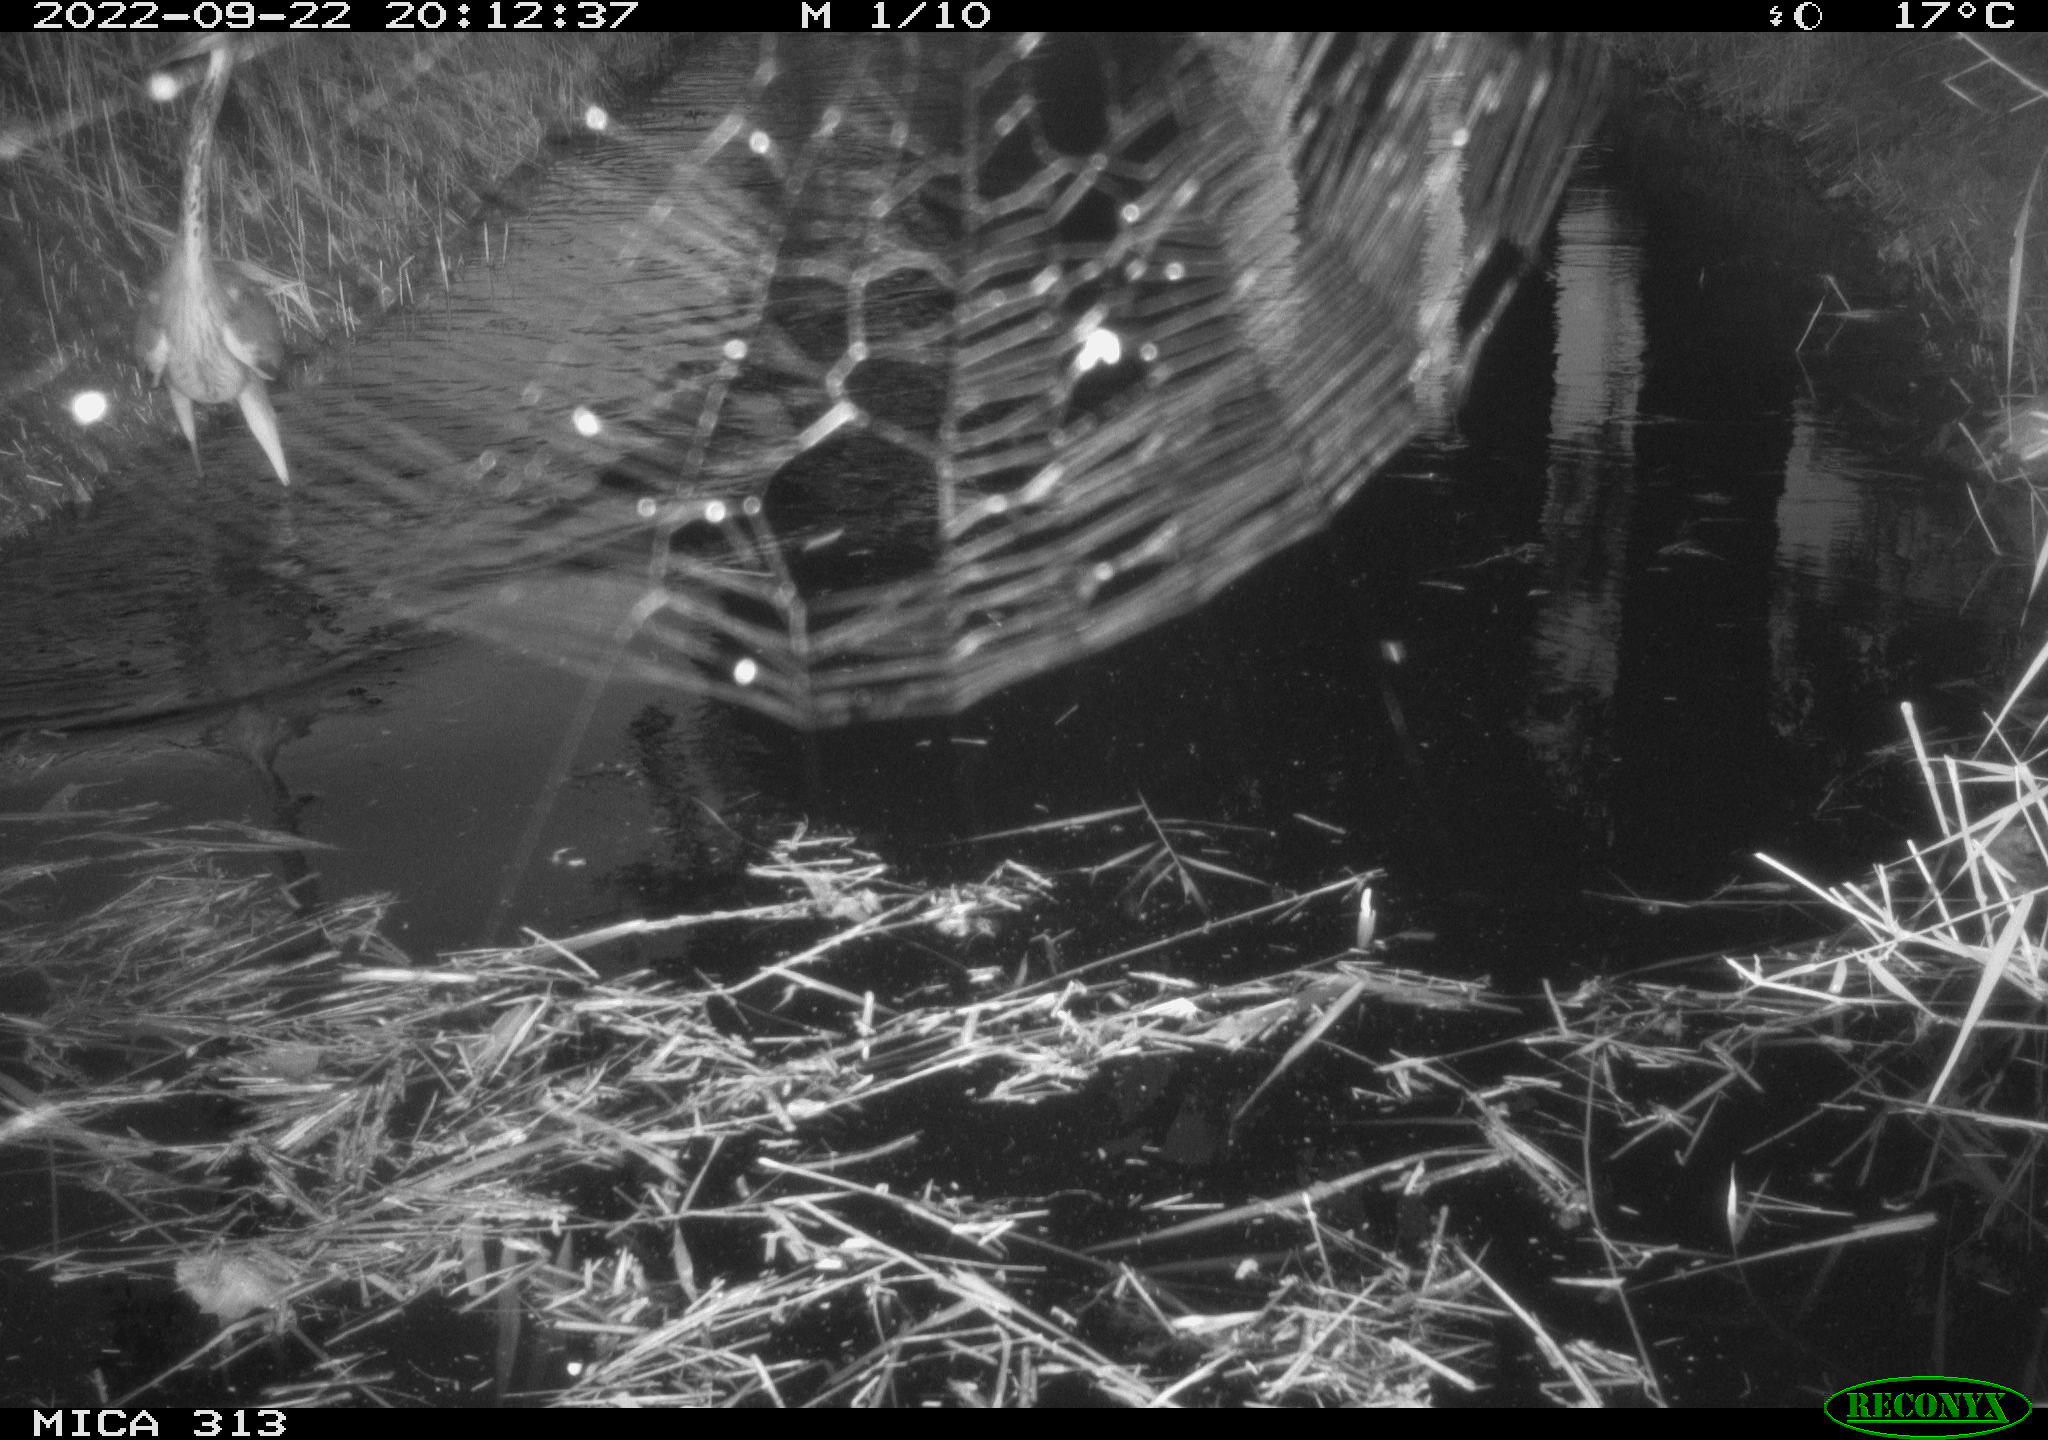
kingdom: Animalia
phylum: Chordata
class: Aves
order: Pelecaniformes
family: Ardeidae
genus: Ardea
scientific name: Ardea cinerea
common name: Grey heron
